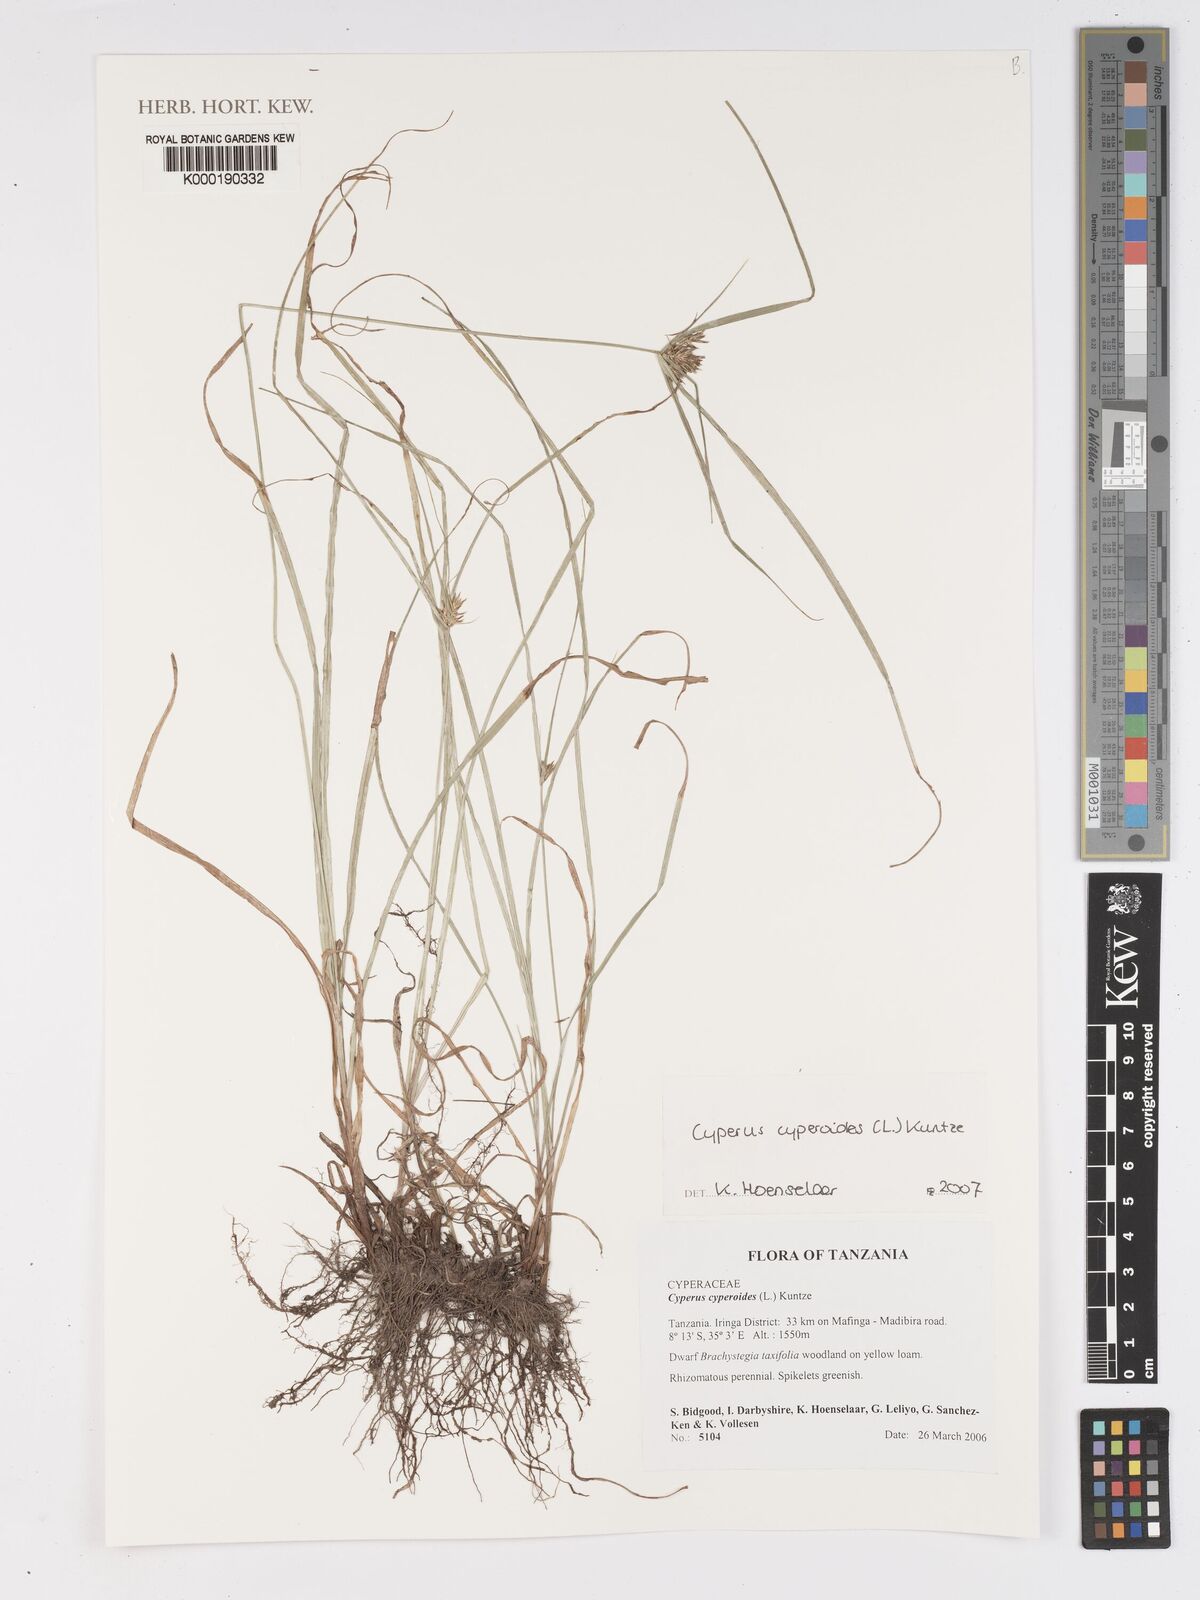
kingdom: Plantae
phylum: Tracheophyta
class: Liliopsida
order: Poales
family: Cyperaceae
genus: Cyperus
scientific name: Cyperus cyperoides
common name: Pacific island flat sedge
